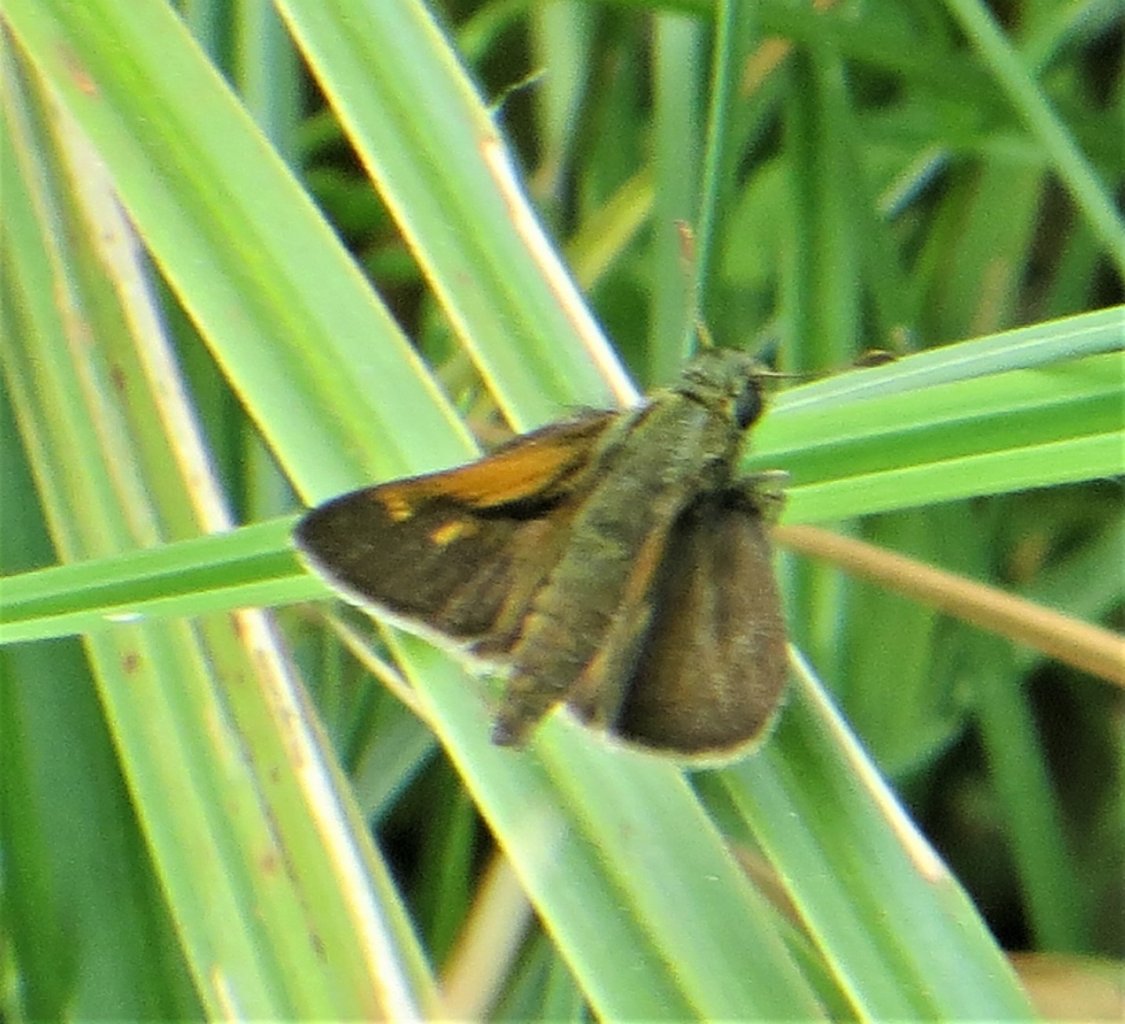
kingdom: Animalia
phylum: Arthropoda
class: Insecta
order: Lepidoptera
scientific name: Lepidoptera
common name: Butterflies
